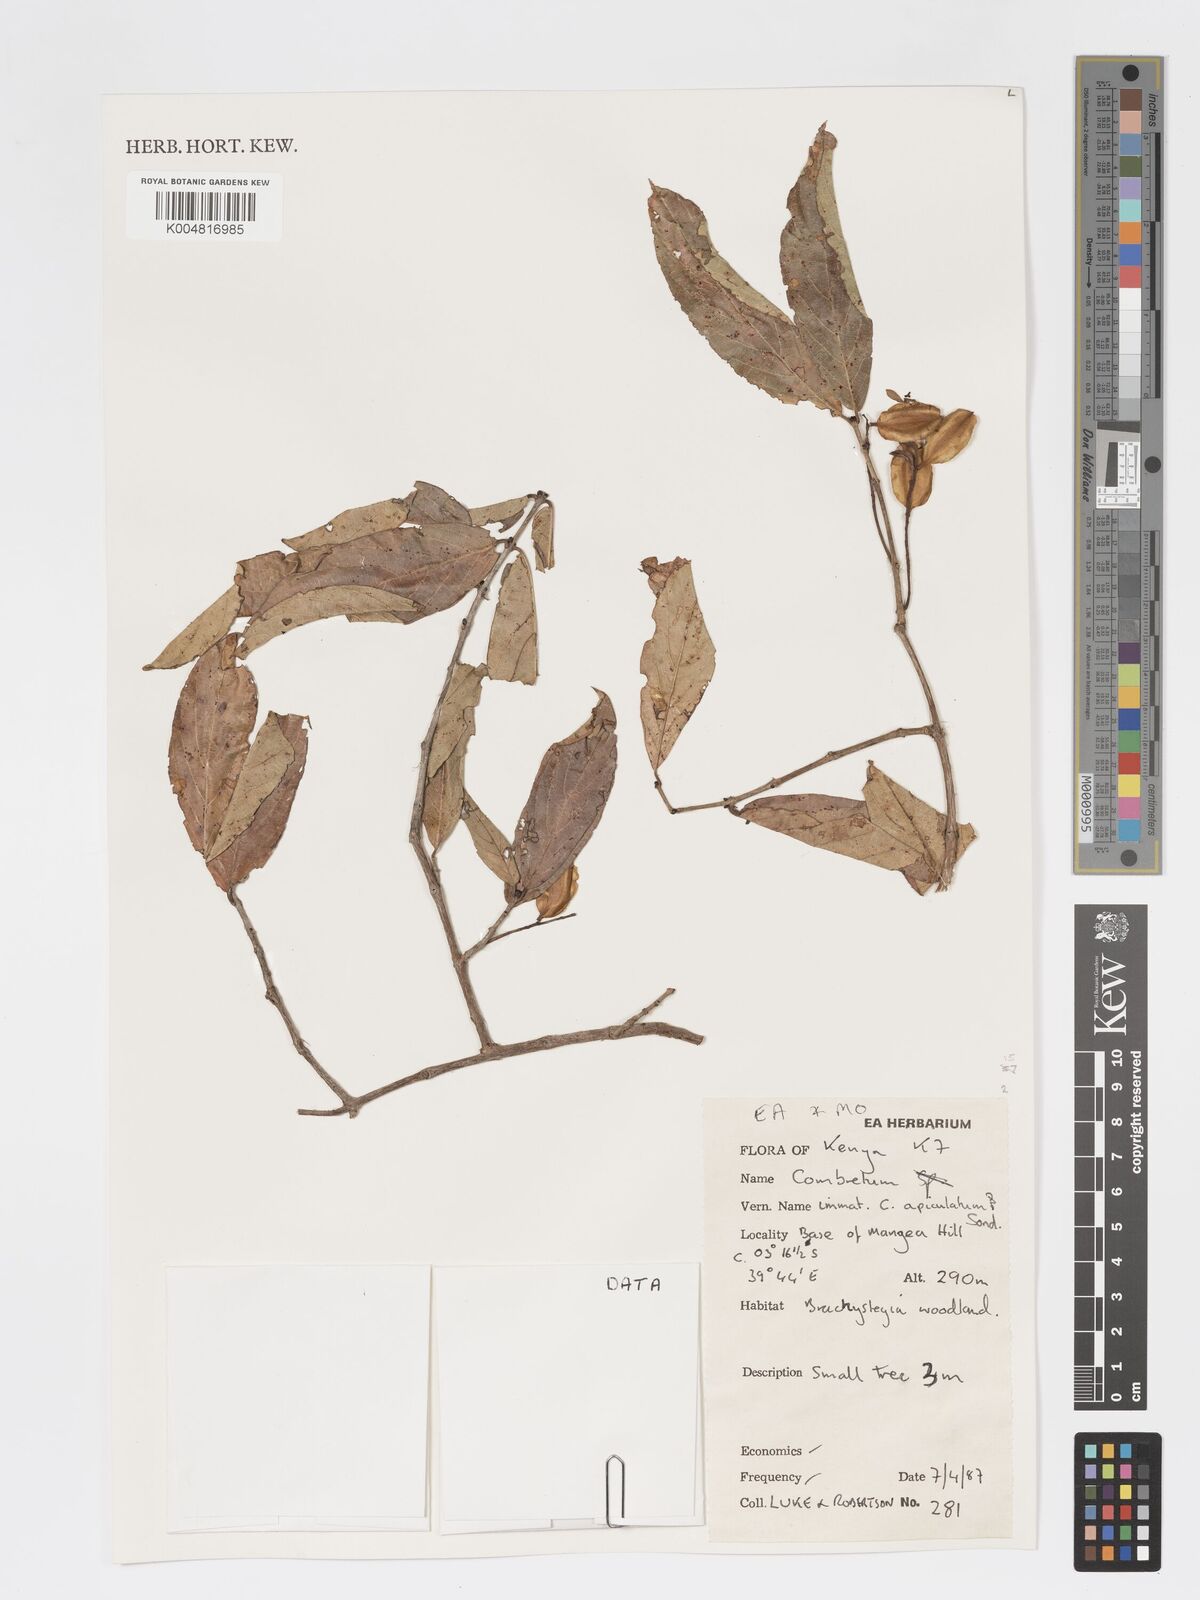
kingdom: Plantae
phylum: Tracheophyta
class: Magnoliopsida
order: Myrtales
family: Combretaceae
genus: Combretum
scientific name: Combretum apiculatum
